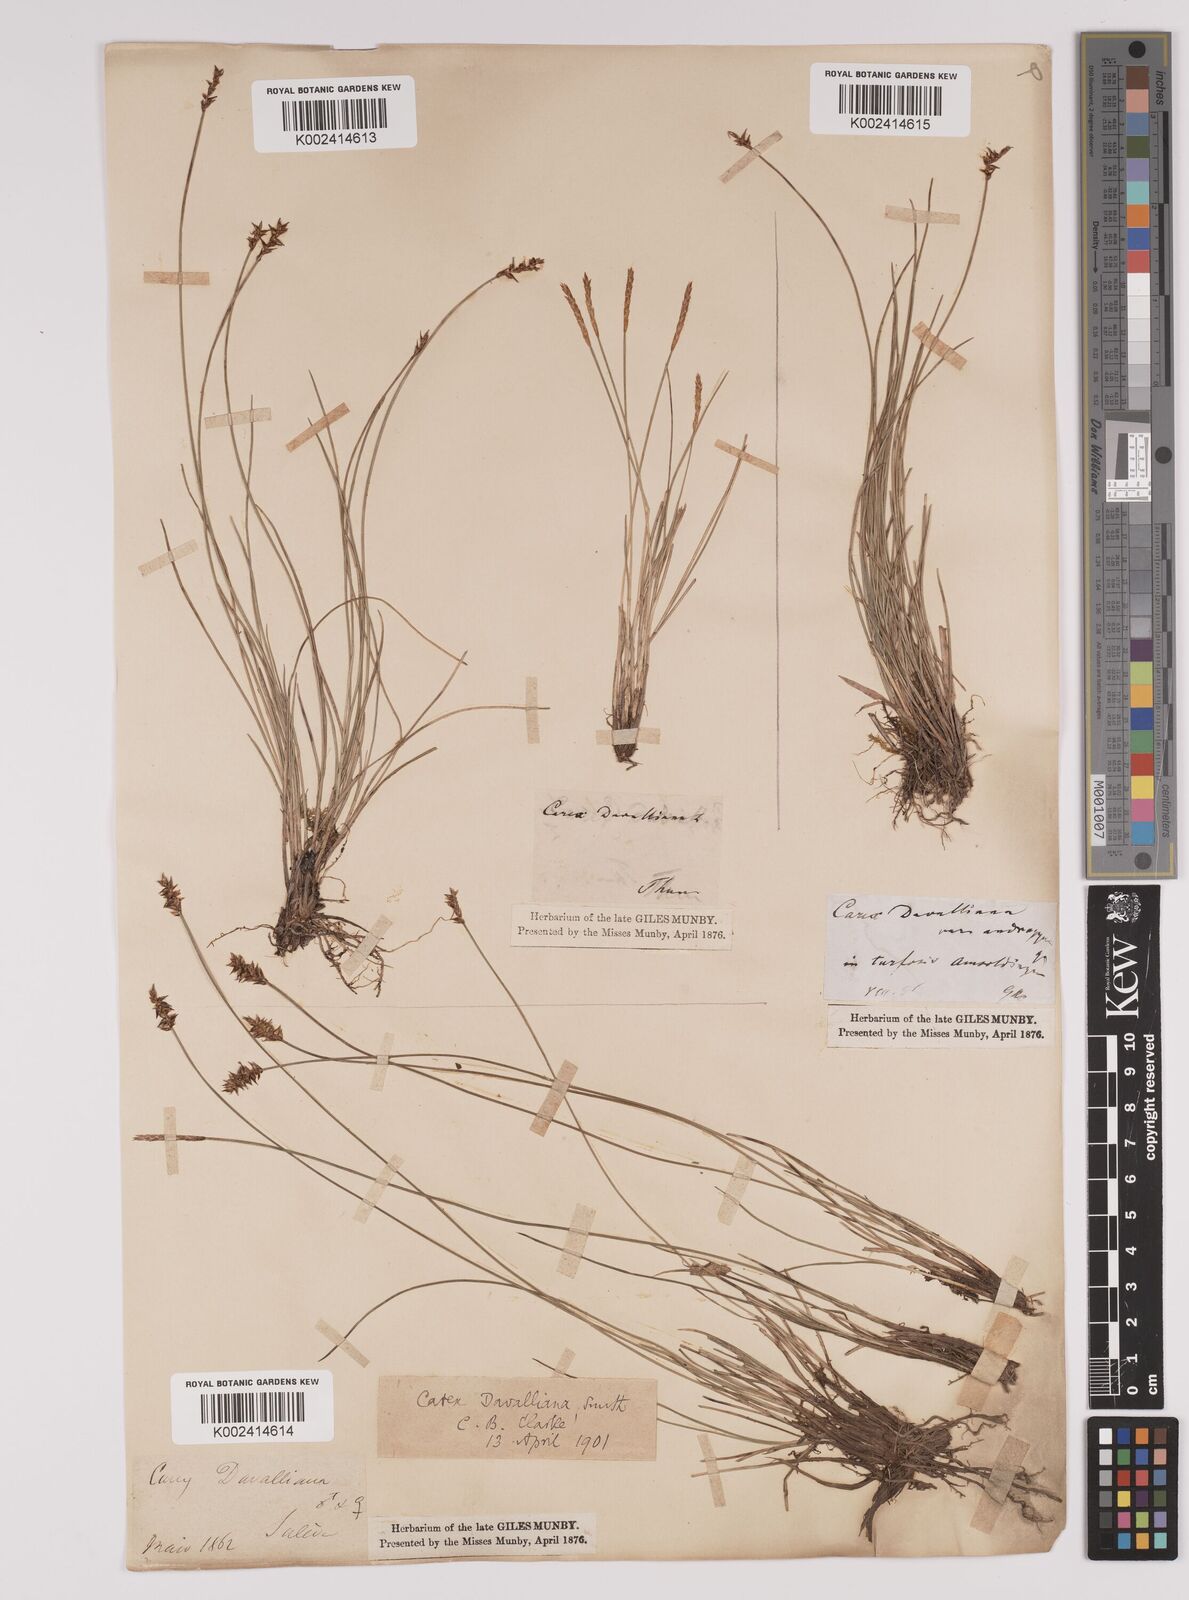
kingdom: Plantae
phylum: Tracheophyta
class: Liliopsida
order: Poales
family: Cyperaceae
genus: Carex
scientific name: Carex davalliana
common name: Davall's sedge
